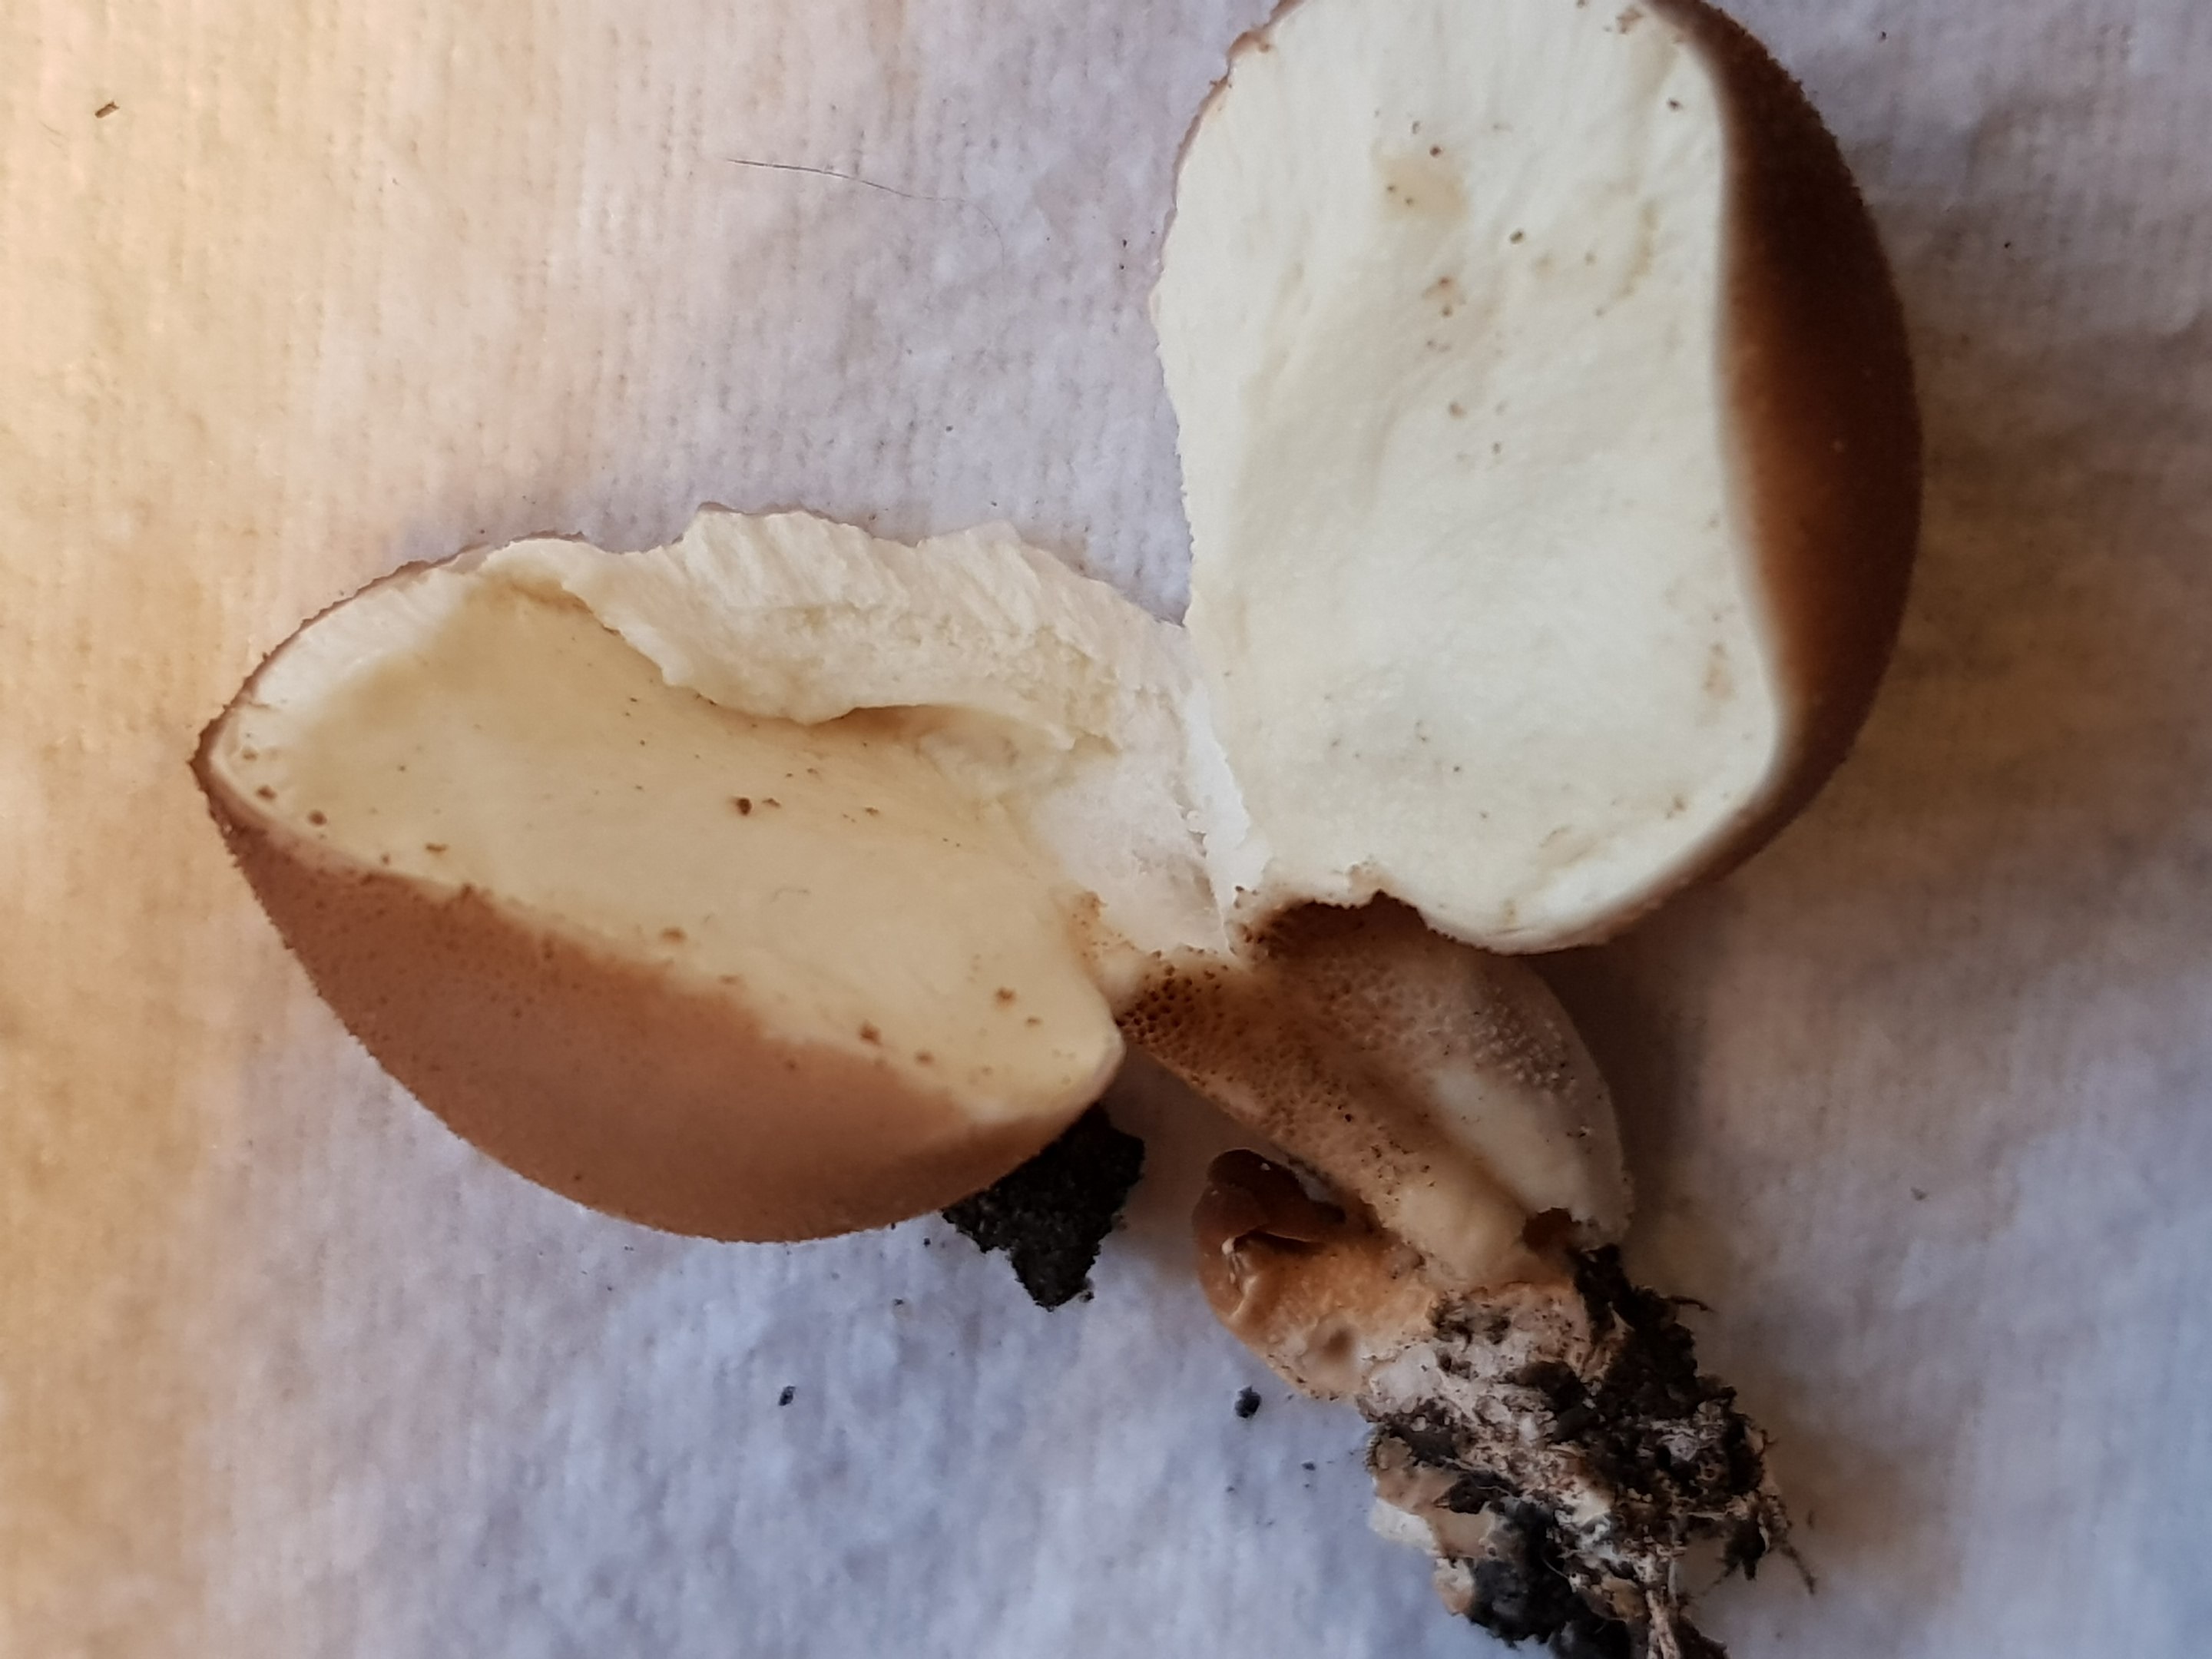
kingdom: Fungi
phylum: Basidiomycota
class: Agaricomycetes
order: Agaricales
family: Lycoperdaceae
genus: Apioperdon
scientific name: Apioperdon pyriforme
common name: pære-støvbold
